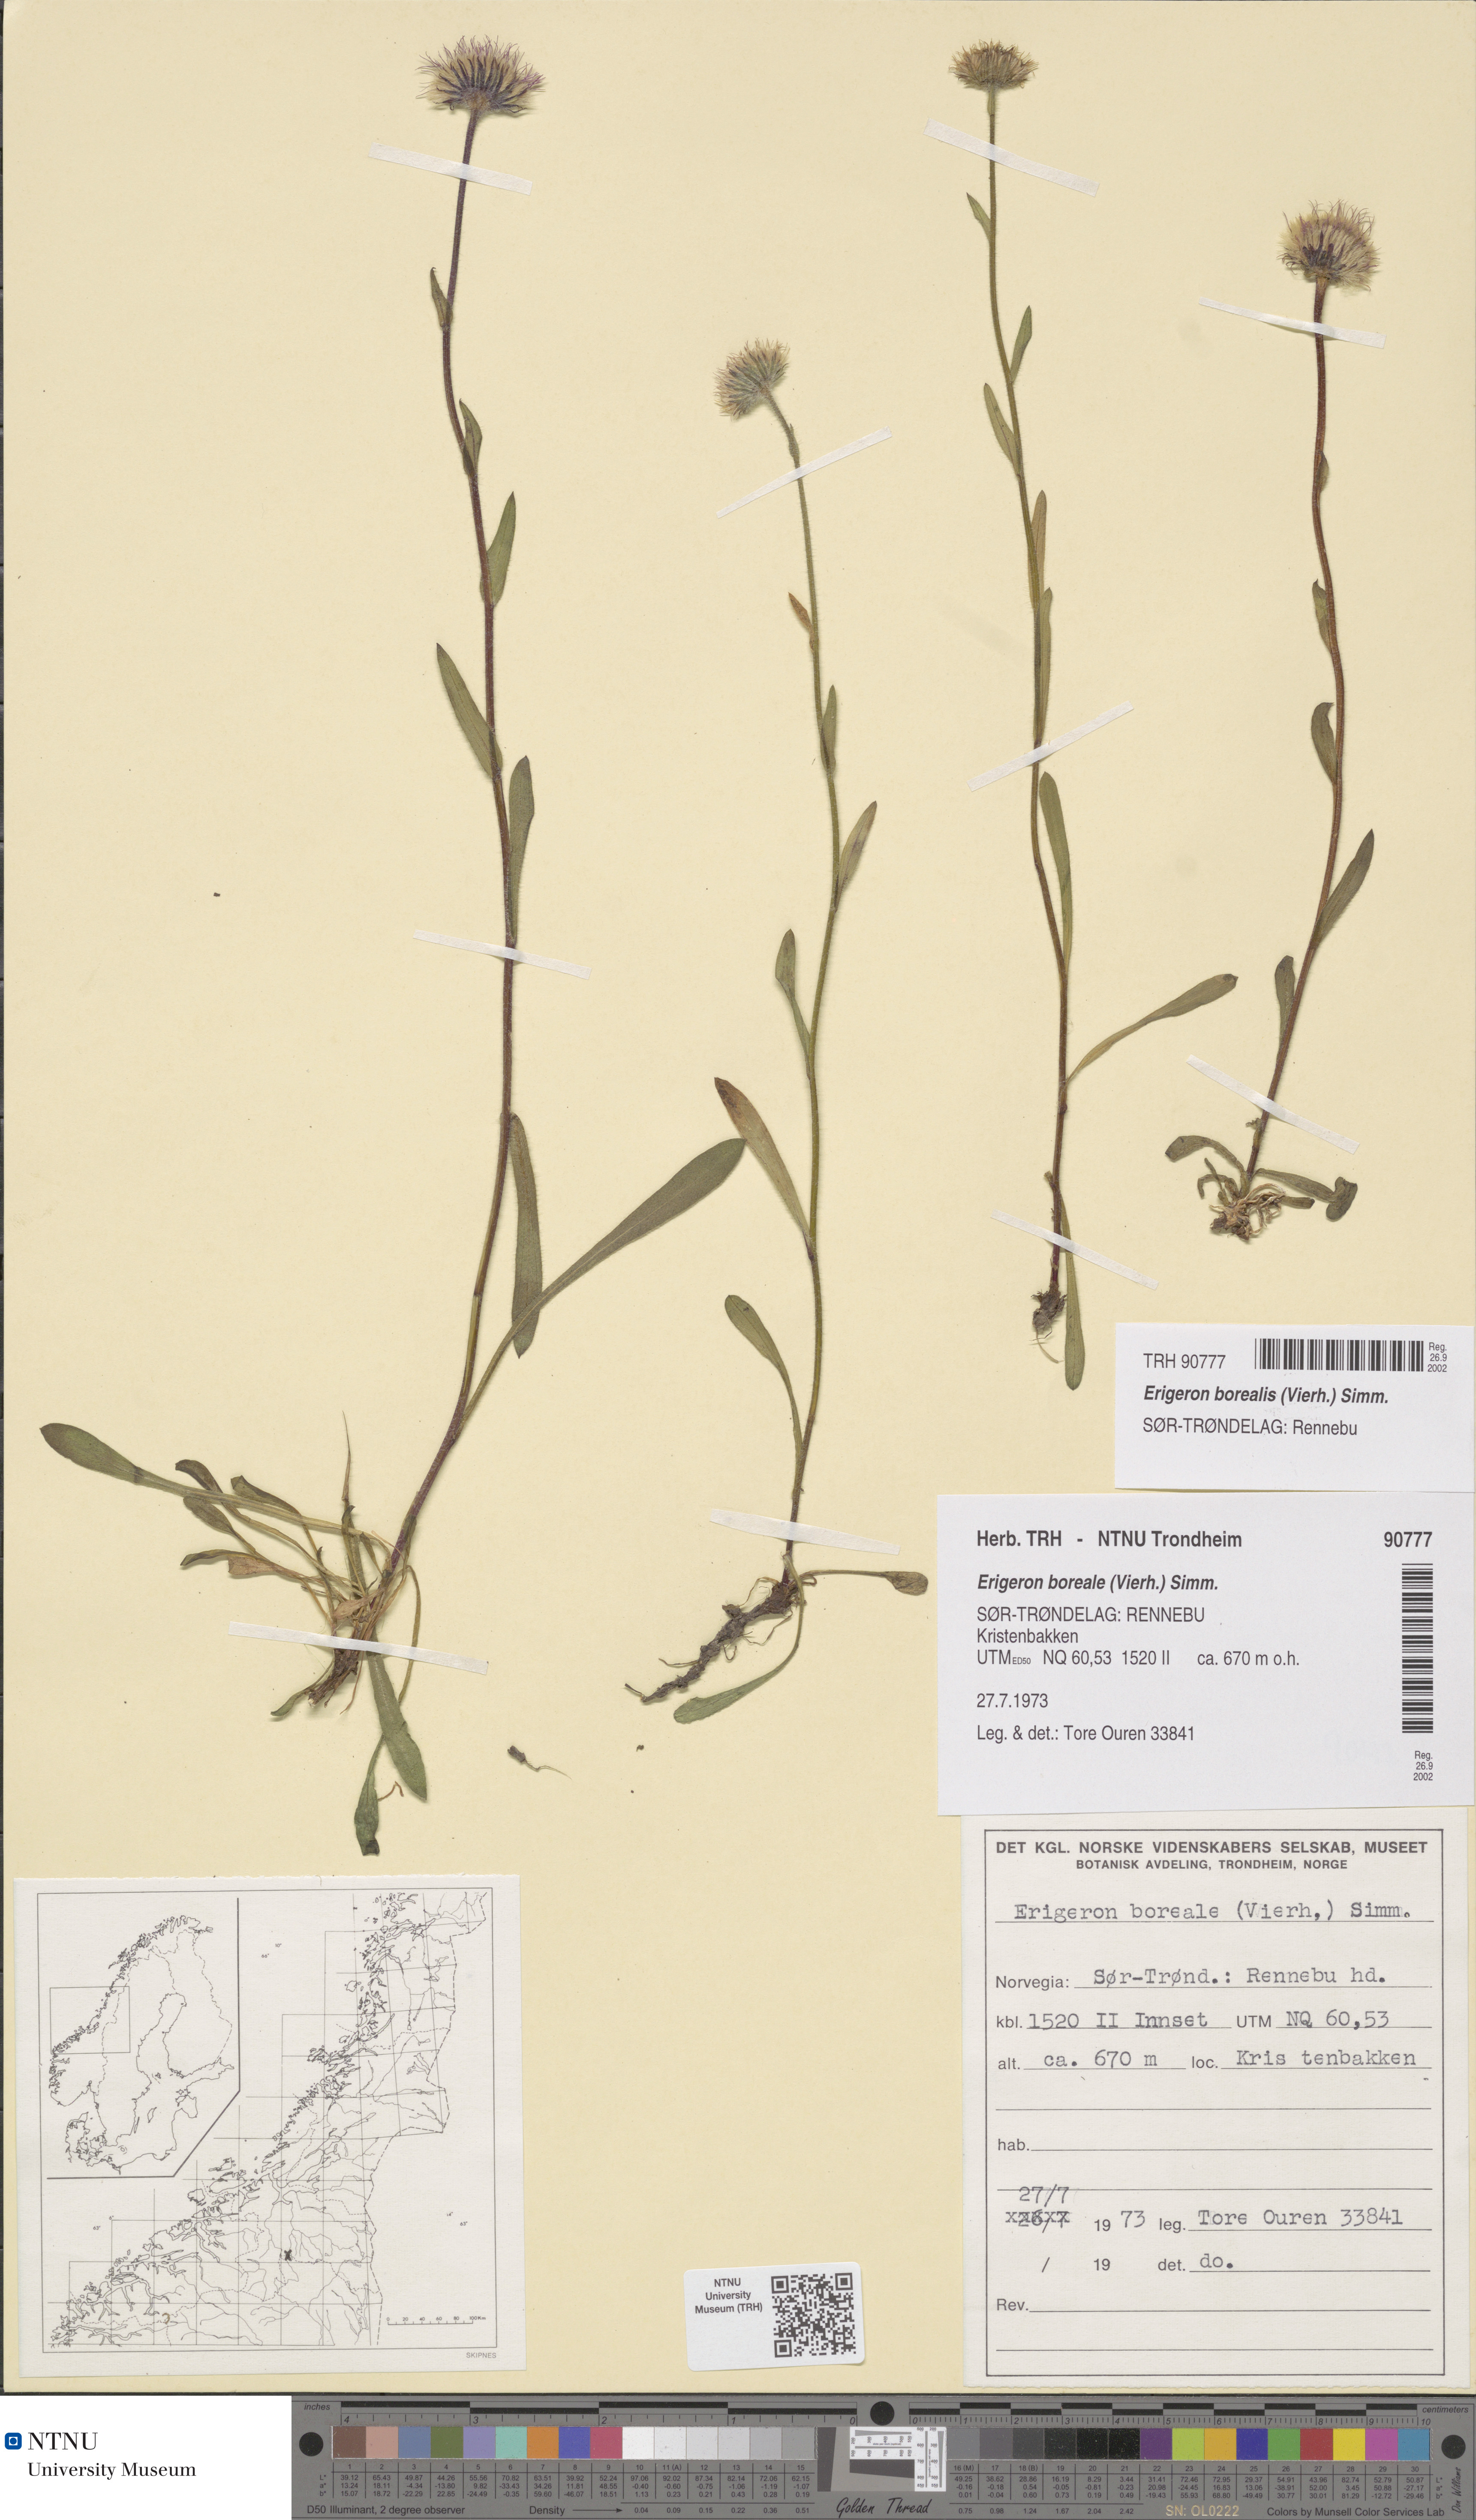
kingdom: Plantae
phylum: Tracheophyta
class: Magnoliopsida
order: Asterales
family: Asteraceae
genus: Erigeron
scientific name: Erigeron borealis
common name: Alpine fleabane
